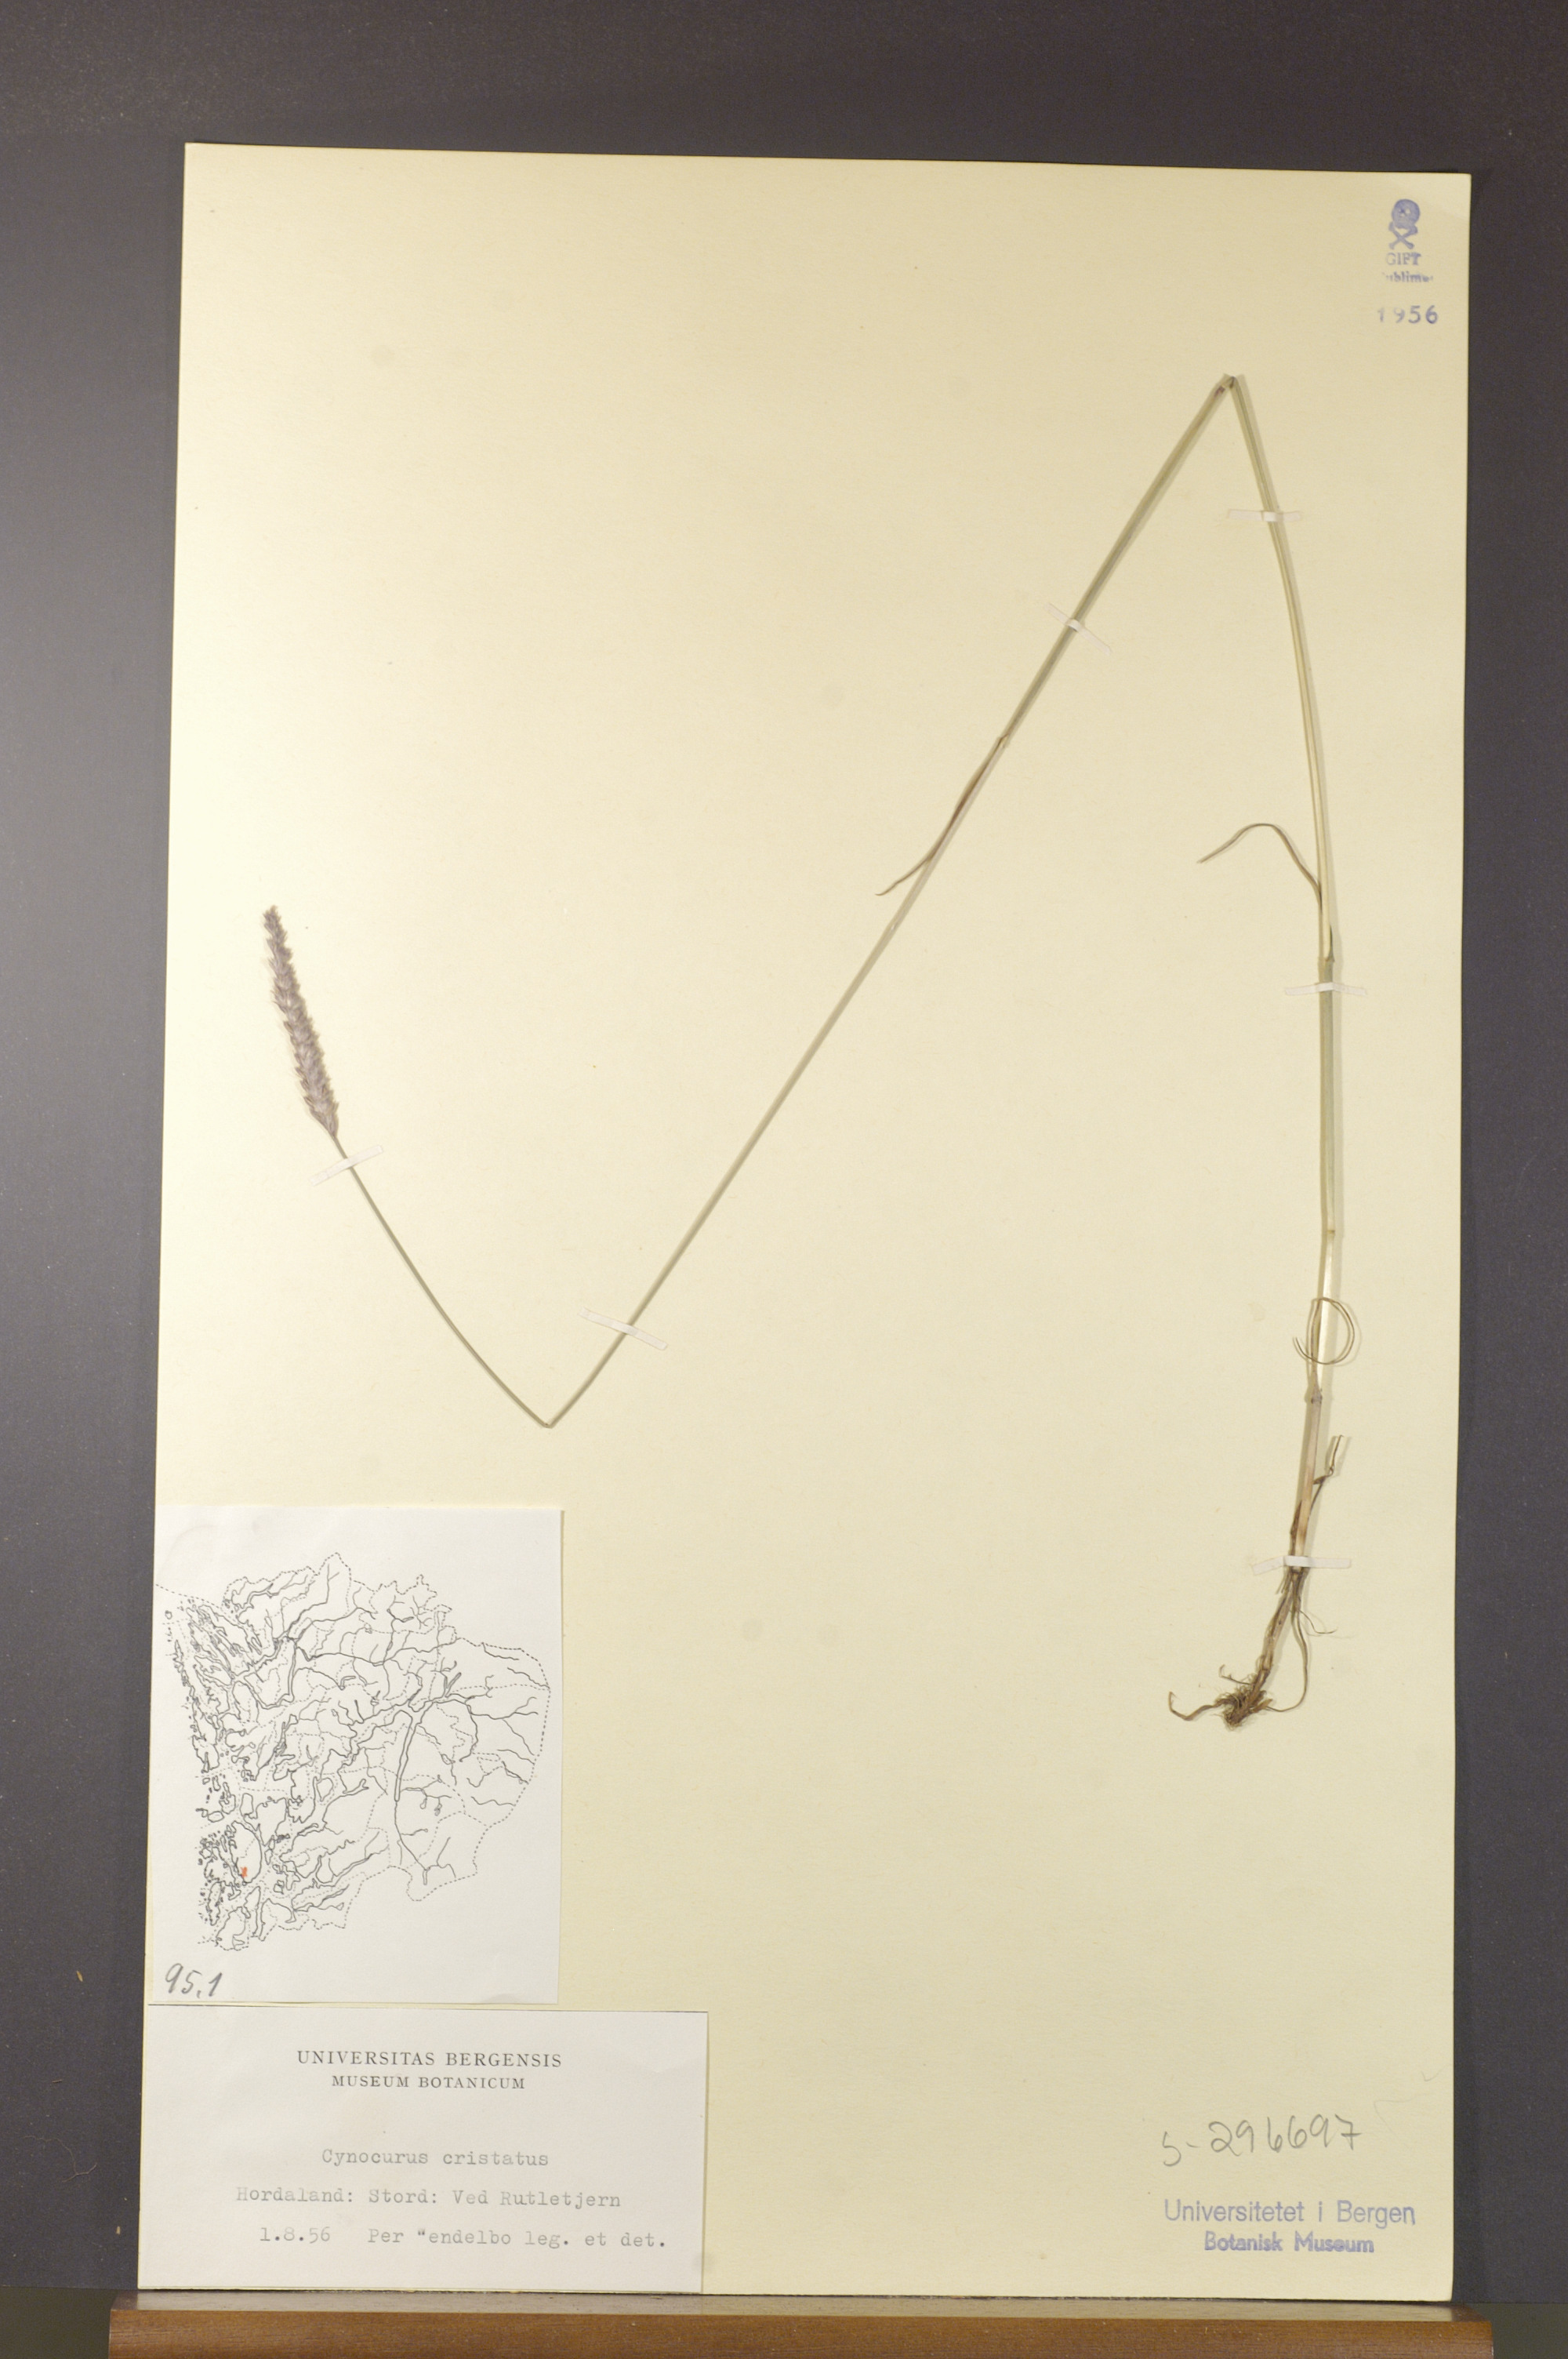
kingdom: Plantae
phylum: Tracheophyta
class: Liliopsida
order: Poales
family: Poaceae
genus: Cynosurus
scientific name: Cynosurus cristatus
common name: Crested dog's-tail
